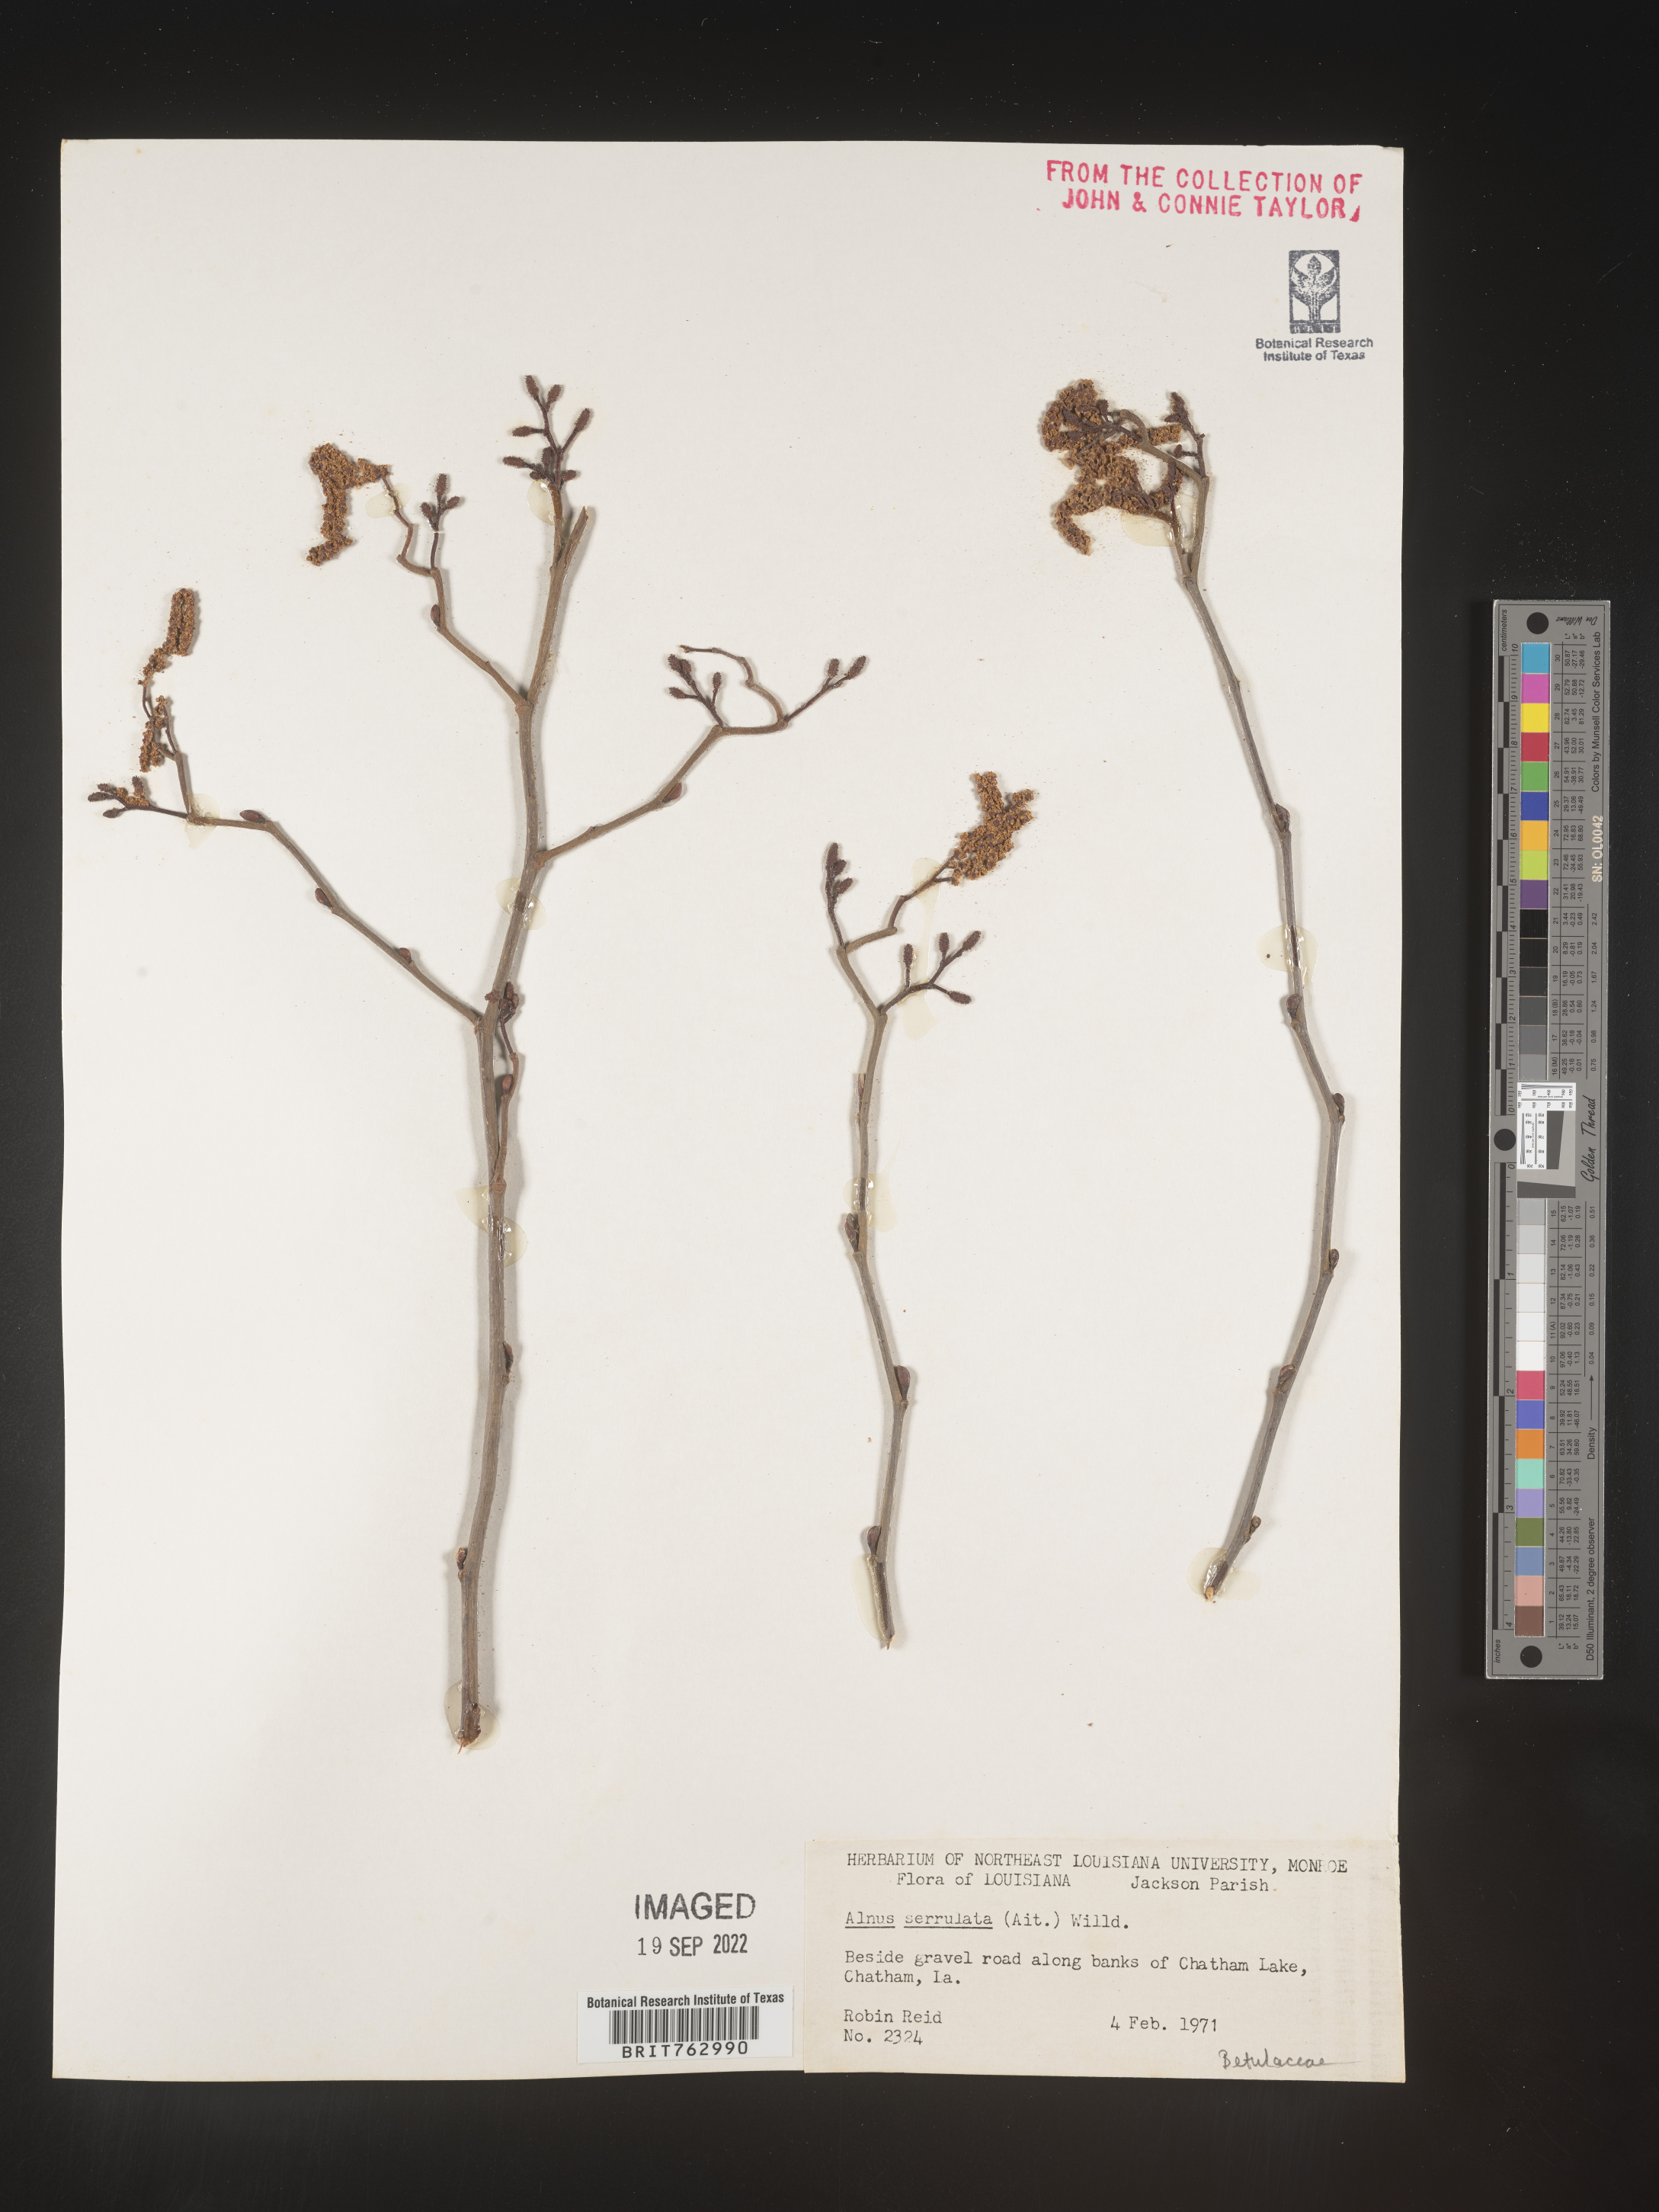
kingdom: Plantae
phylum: Tracheophyta
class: Magnoliopsida
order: Fagales
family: Betulaceae
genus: Alnus
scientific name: Alnus serrulata
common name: Hazel alder
